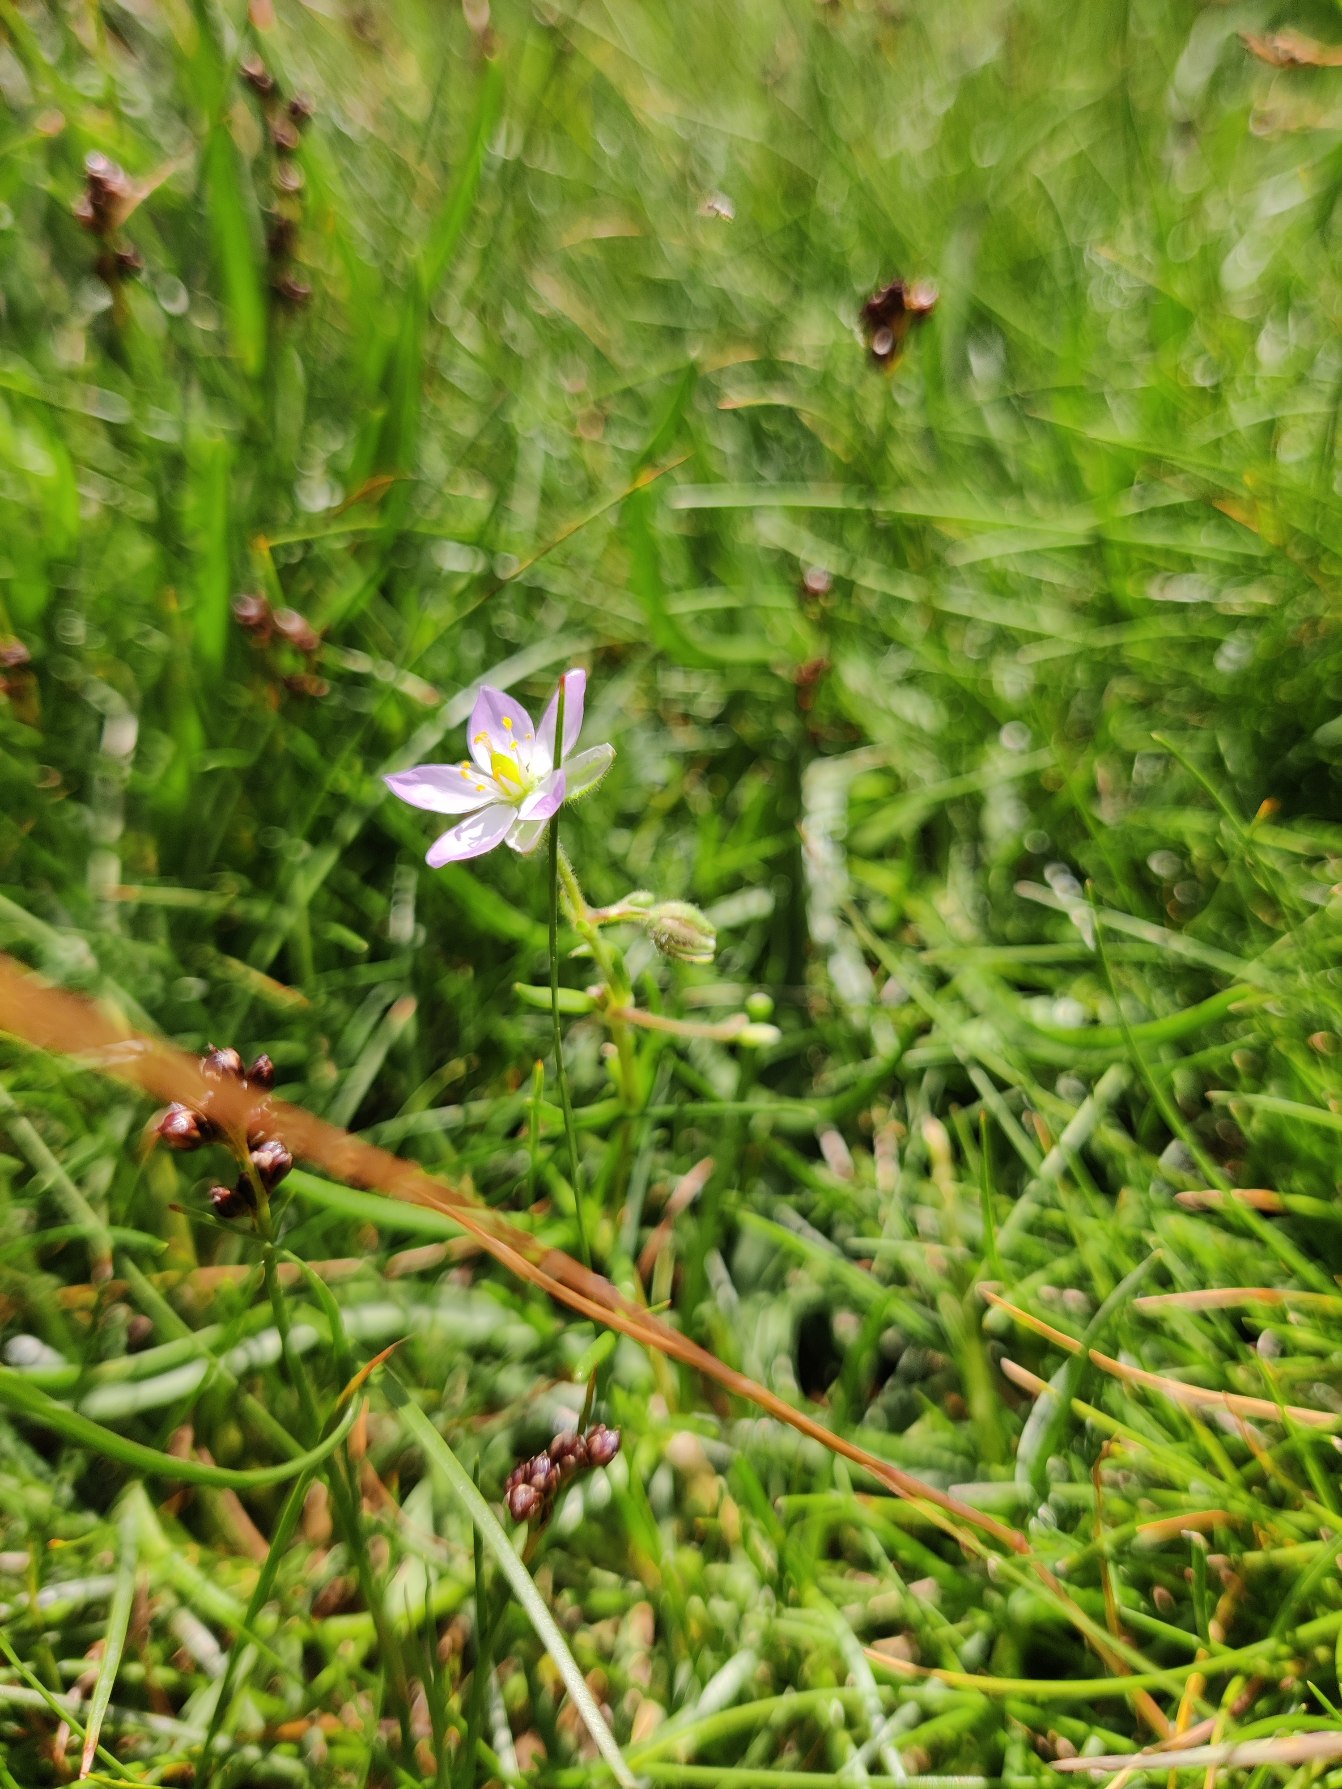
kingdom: Plantae
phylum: Tracheophyta
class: Magnoliopsida
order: Caryophyllales
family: Caryophyllaceae
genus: Spergularia
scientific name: Spergularia media
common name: Vingefrøet hindeknæ
